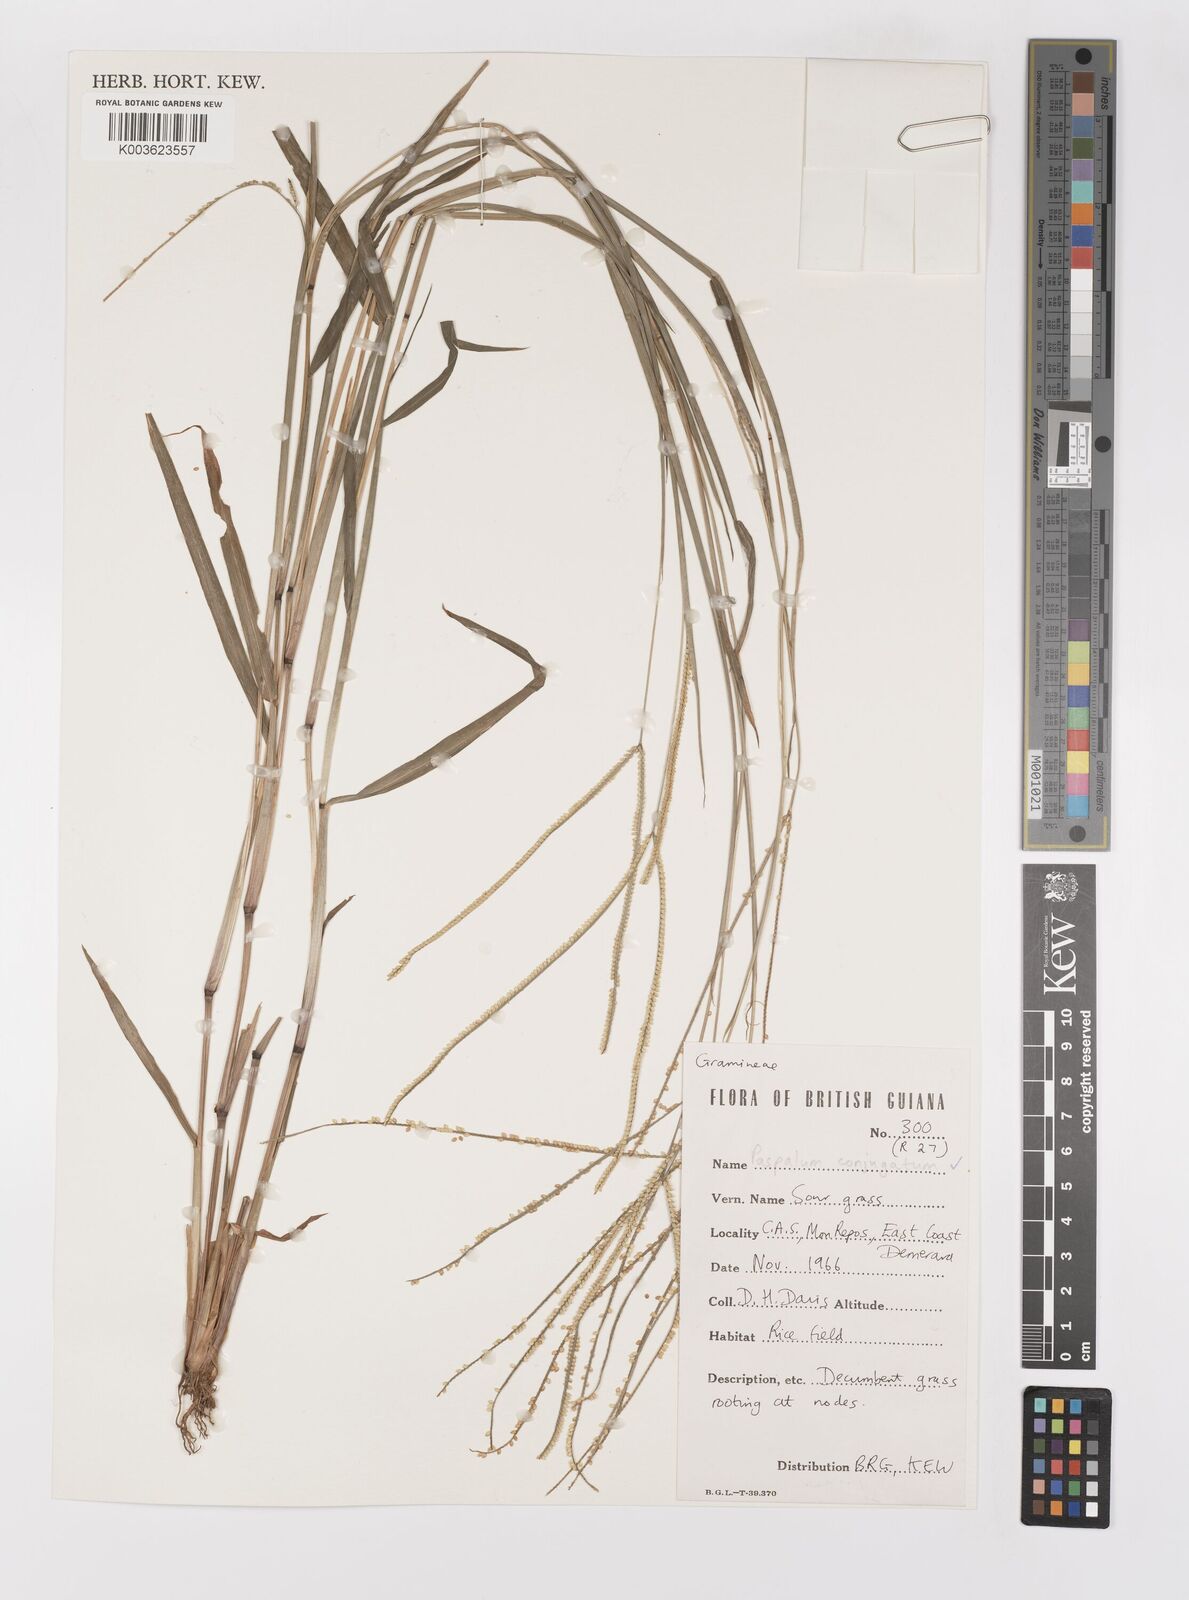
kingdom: Plantae
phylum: Tracheophyta
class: Liliopsida
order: Poales
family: Poaceae
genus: Paspalum
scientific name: Paspalum conjugatum
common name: Hilograss
